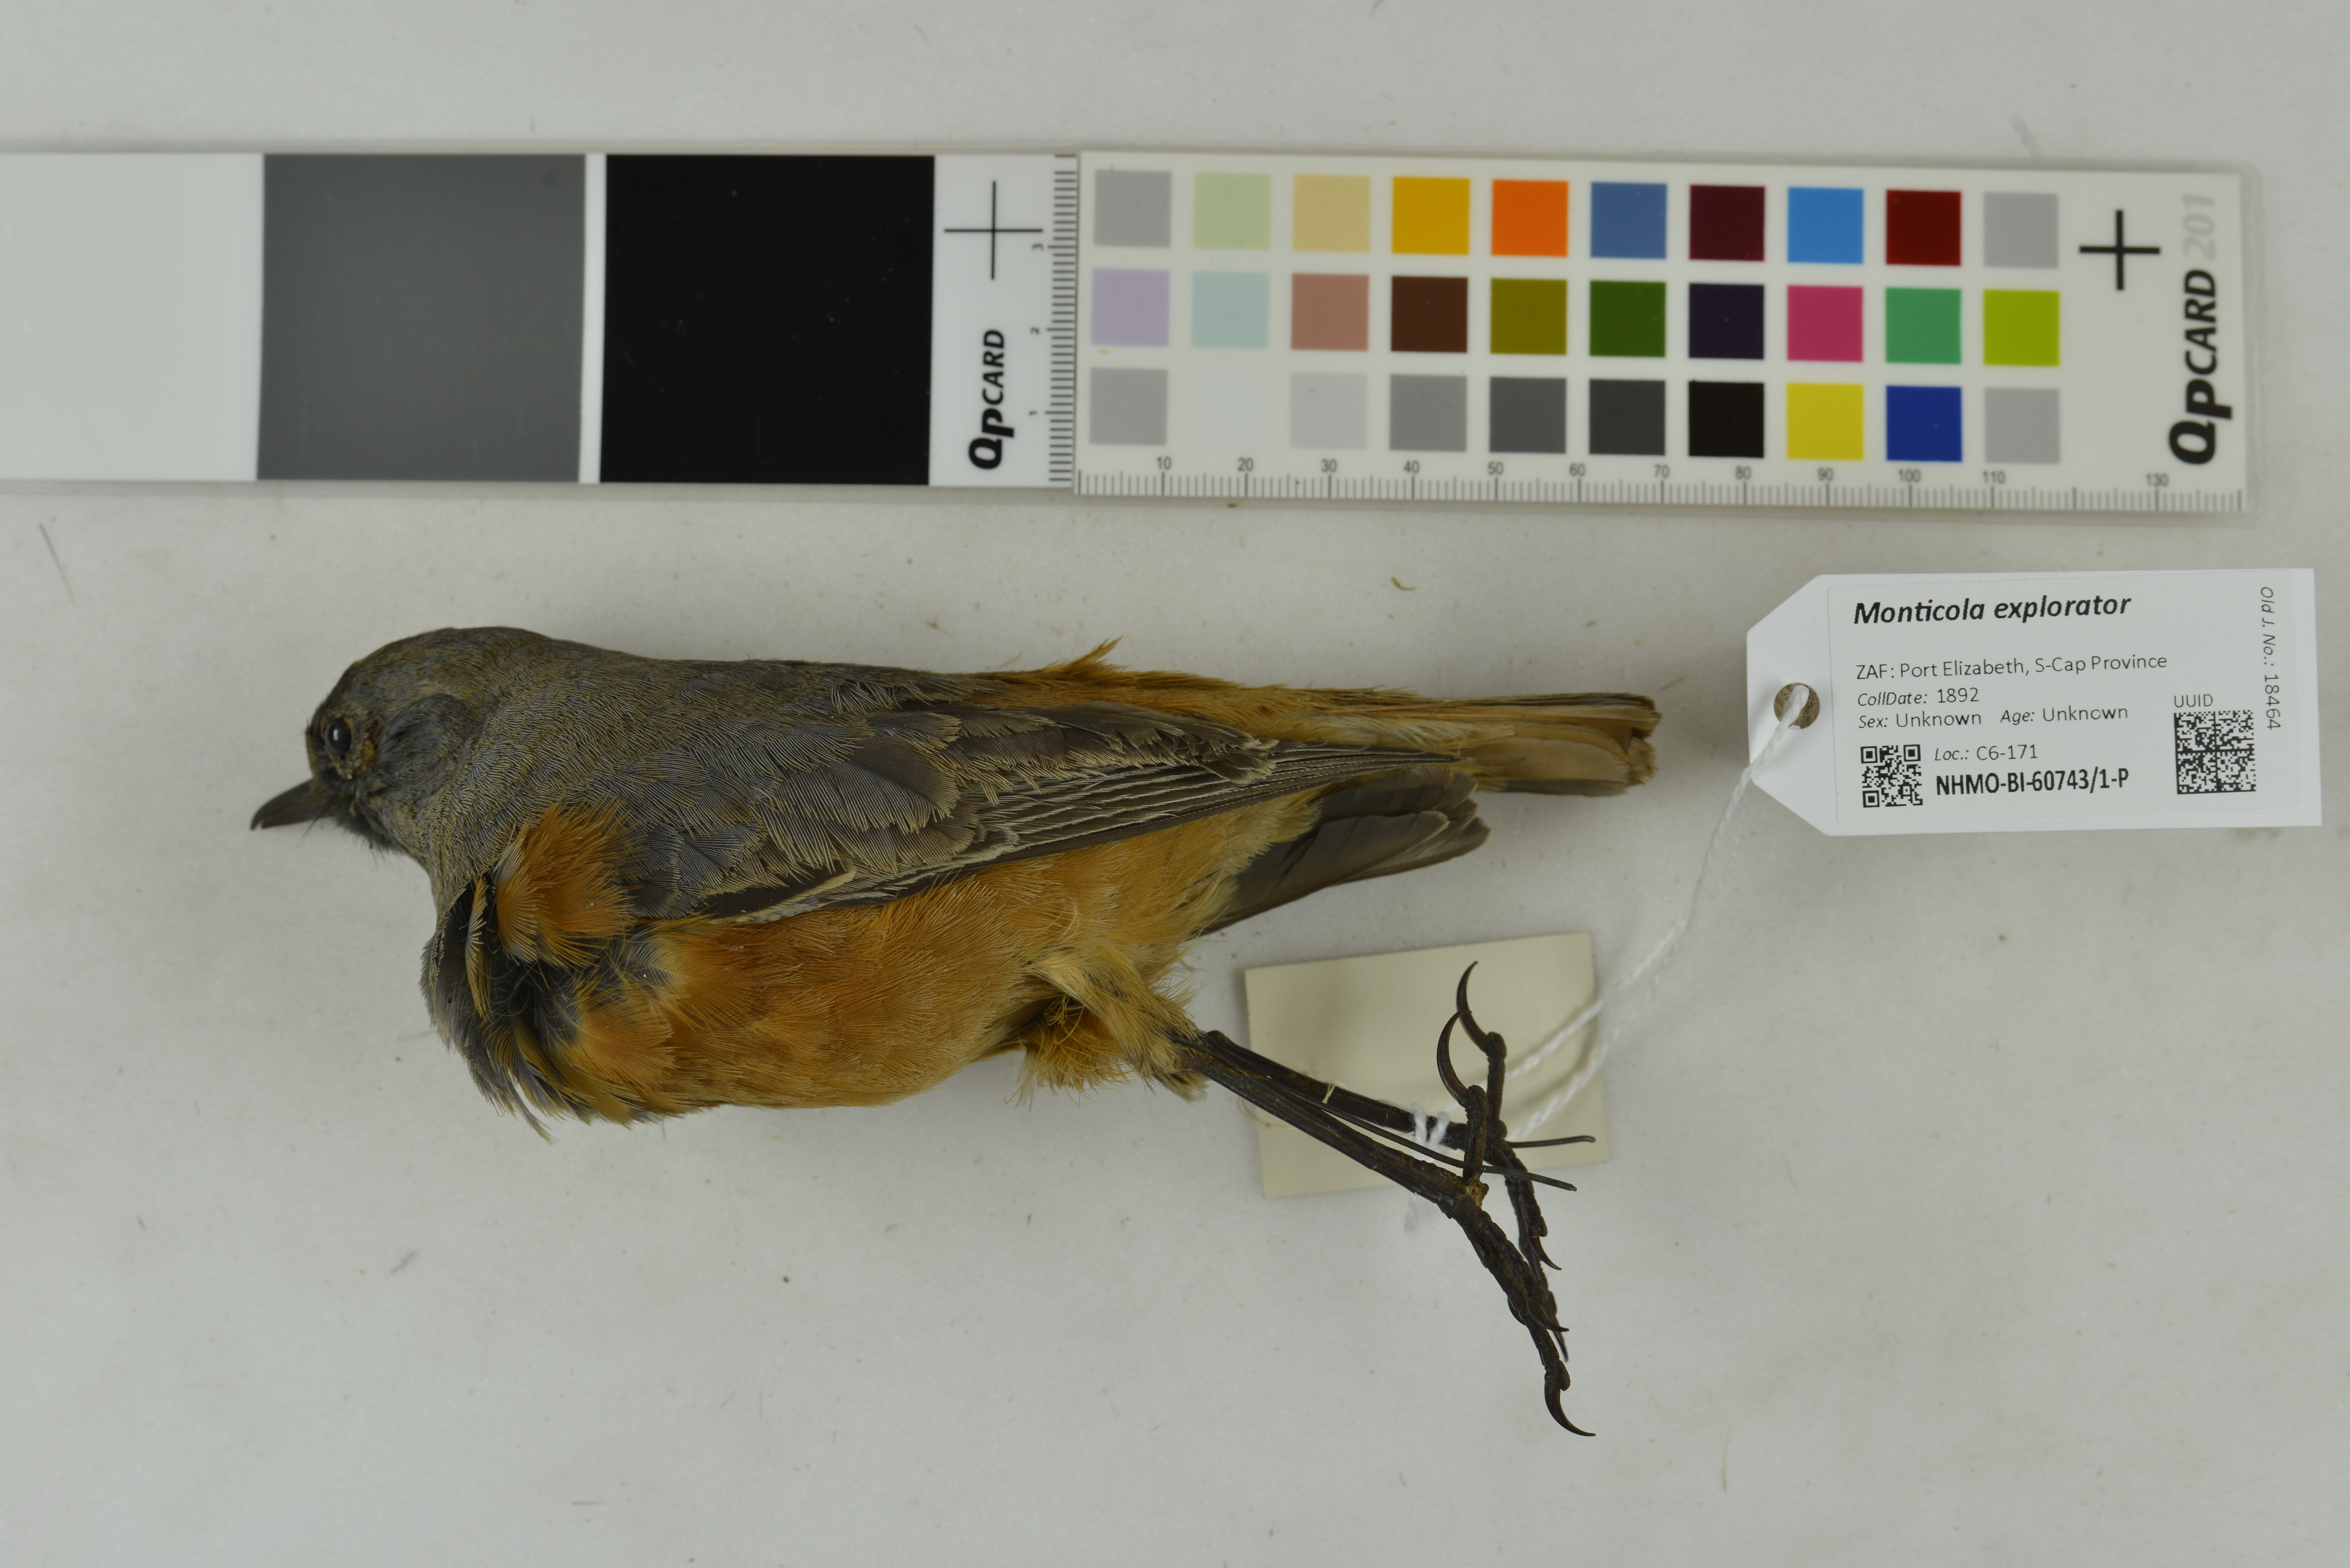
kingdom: Animalia
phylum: Chordata
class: Aves
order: Passeriformes
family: Muscicapidae
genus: Monticola
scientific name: Monticola explorator
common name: Sentinel rock thrush
